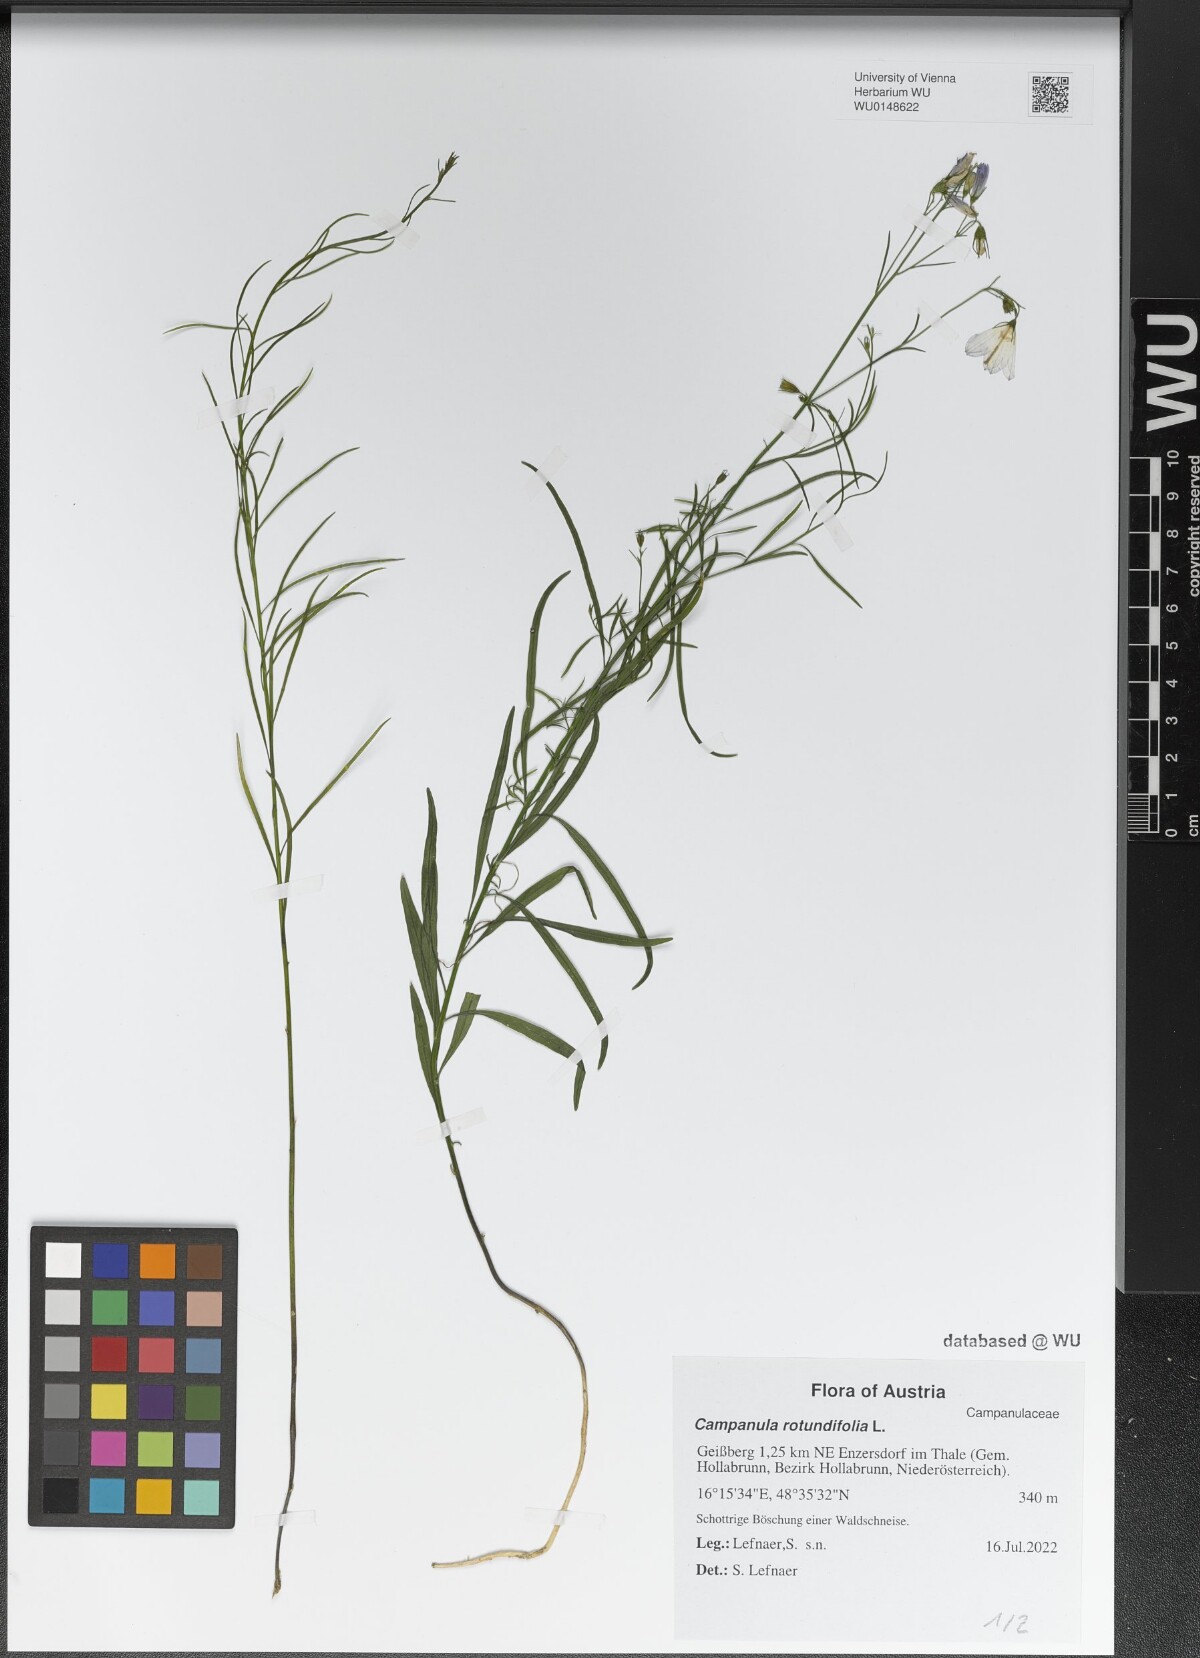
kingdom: Plantae
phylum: Tracheophyta
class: Magnoliopsida
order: Asterales
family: Campanulaceae
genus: Campanula
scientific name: Campanula rotundifolia
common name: Harebell
